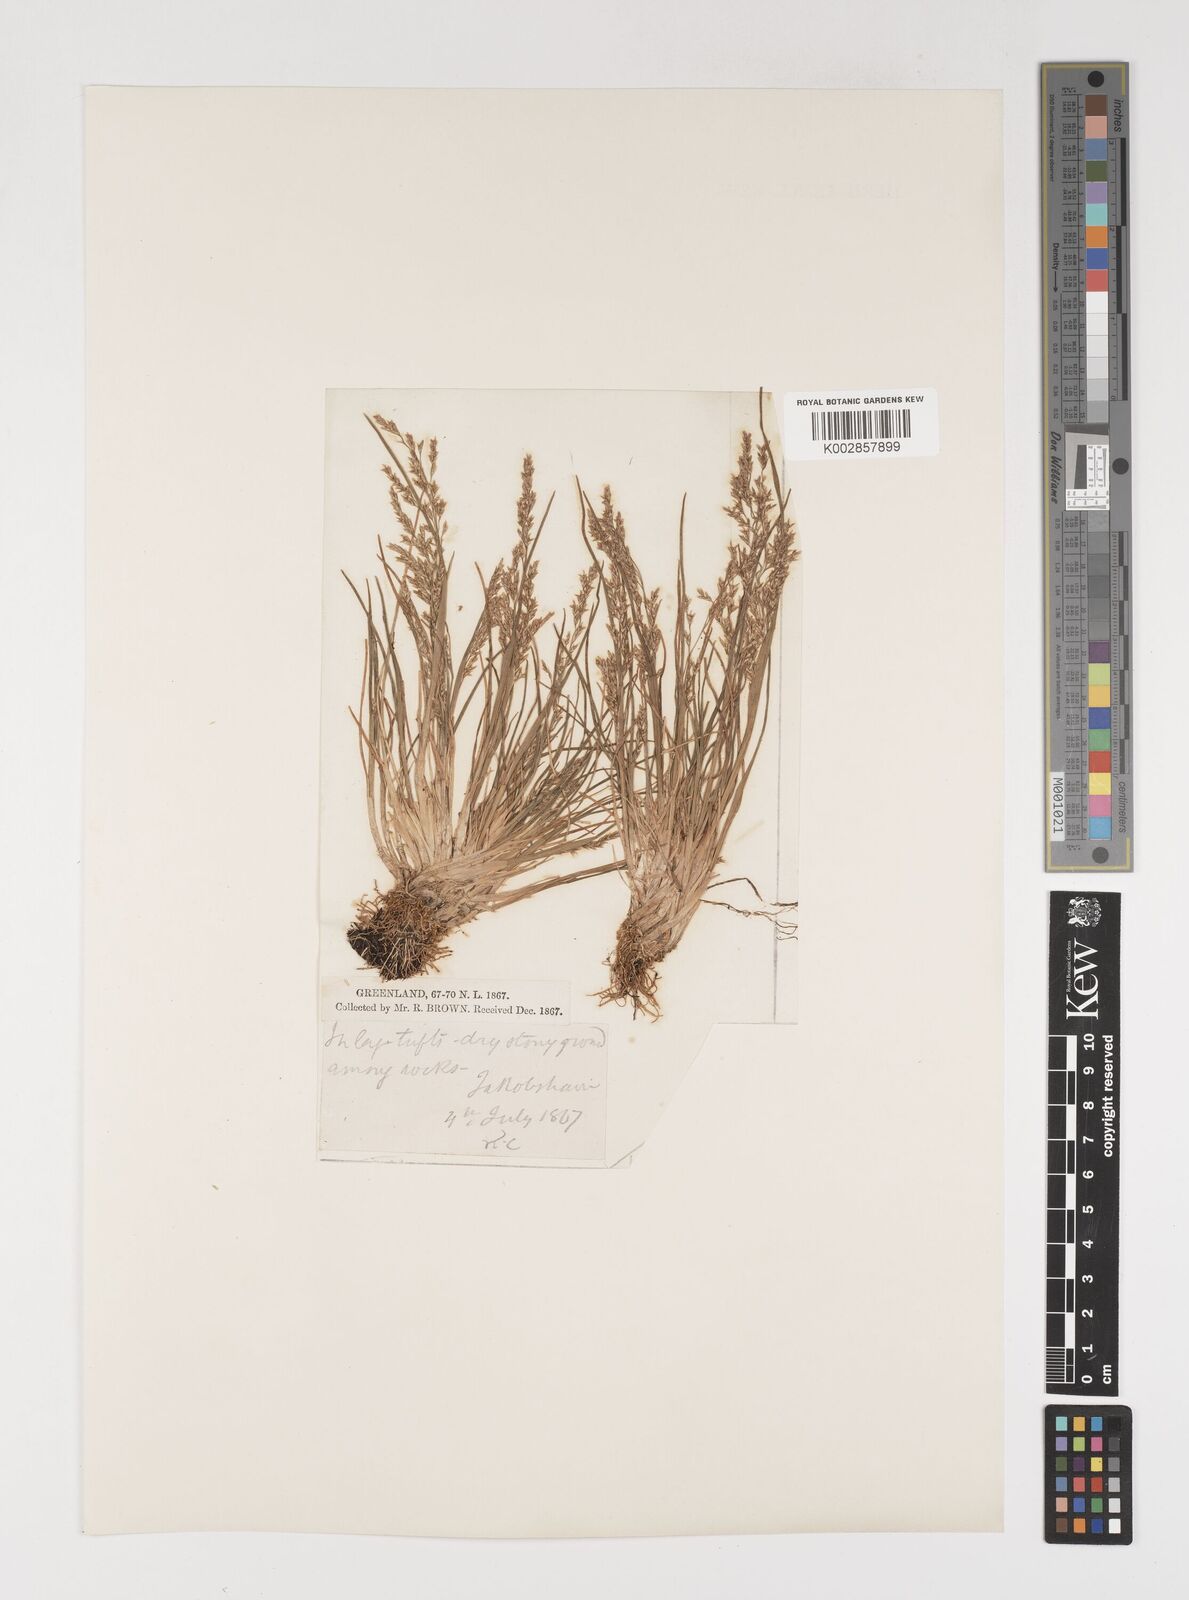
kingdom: Plantae
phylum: Tracheophyta
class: Liliopsida
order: Poales
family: Poaceae
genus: Puccinellia
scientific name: Puccinellia
